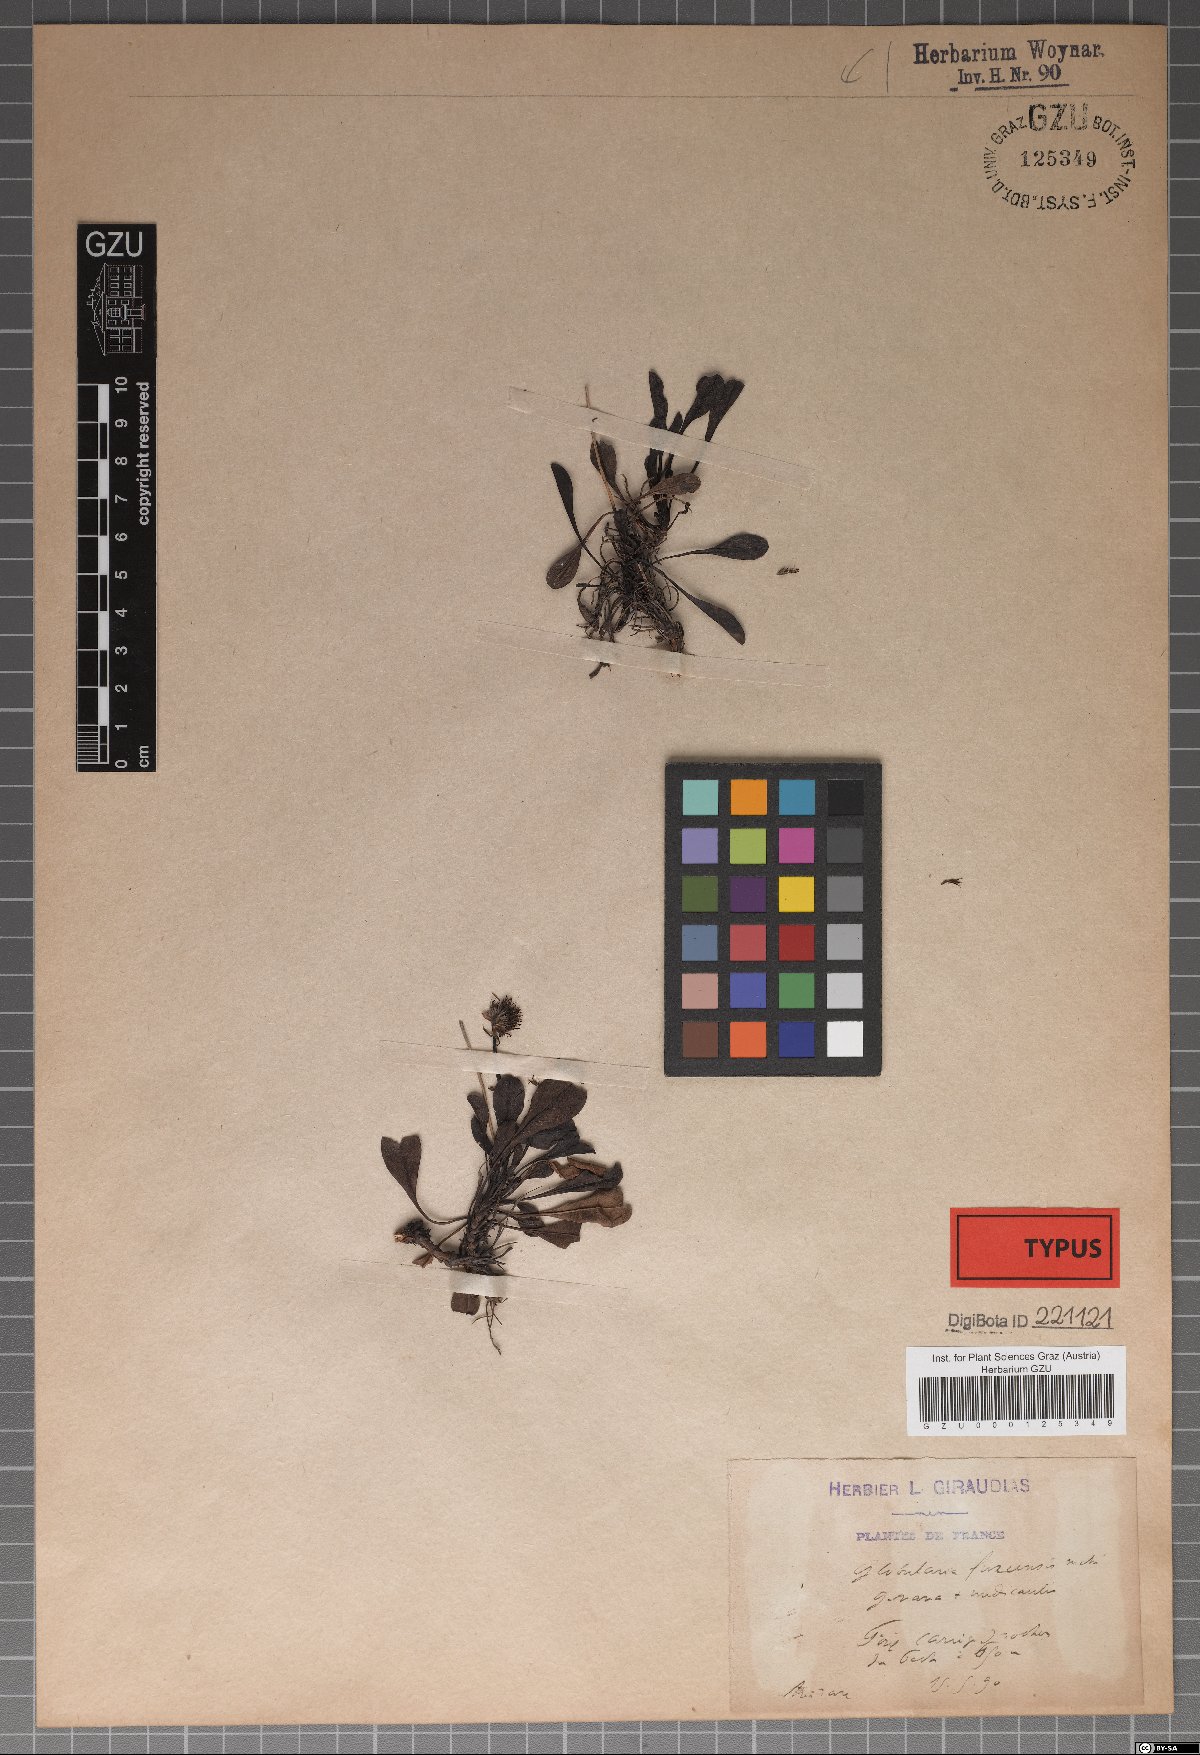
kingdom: Plantae
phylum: Tracheophyta
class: Magnoliopsida
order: Lamiales
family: Plantaginaceae
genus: Globularia
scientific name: Globularia fuxeensis
